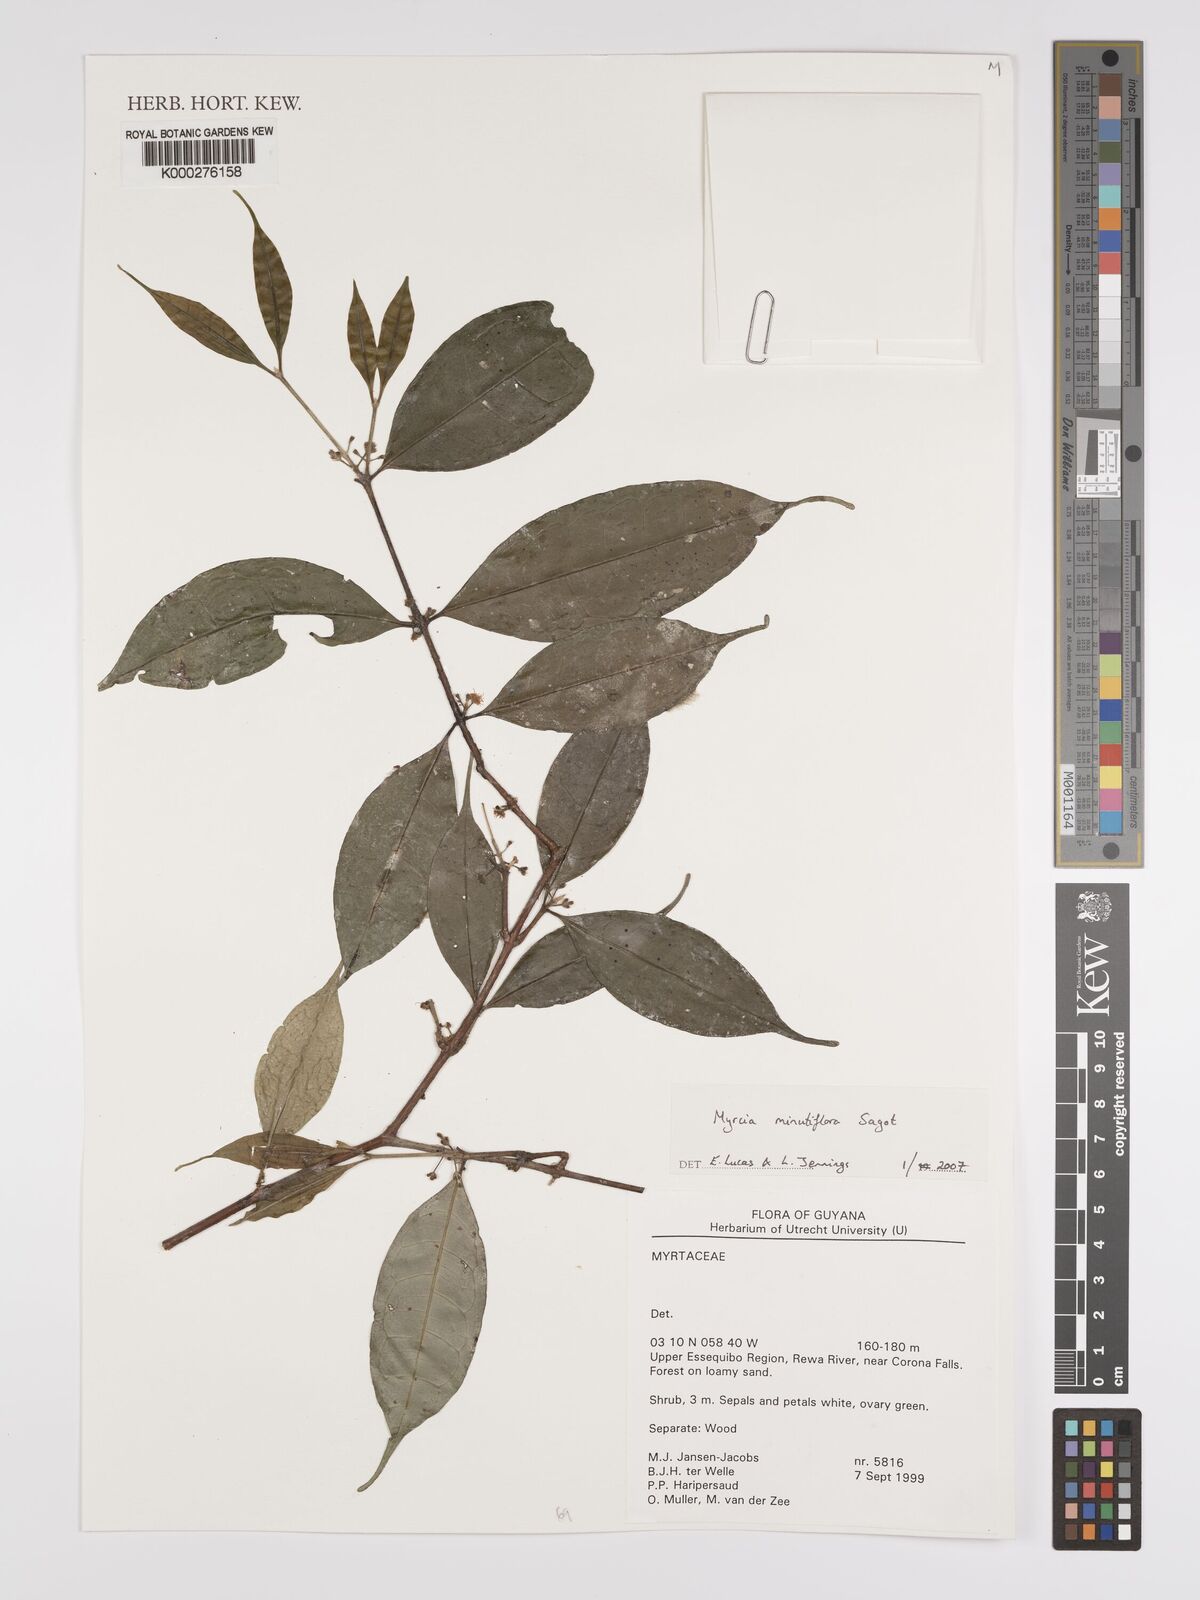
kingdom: Plantae
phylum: Tracheophyta
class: Magnoliopsida
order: Myrtales
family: Myrtaceae
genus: Myrcia
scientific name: Myrcia minutiflora
